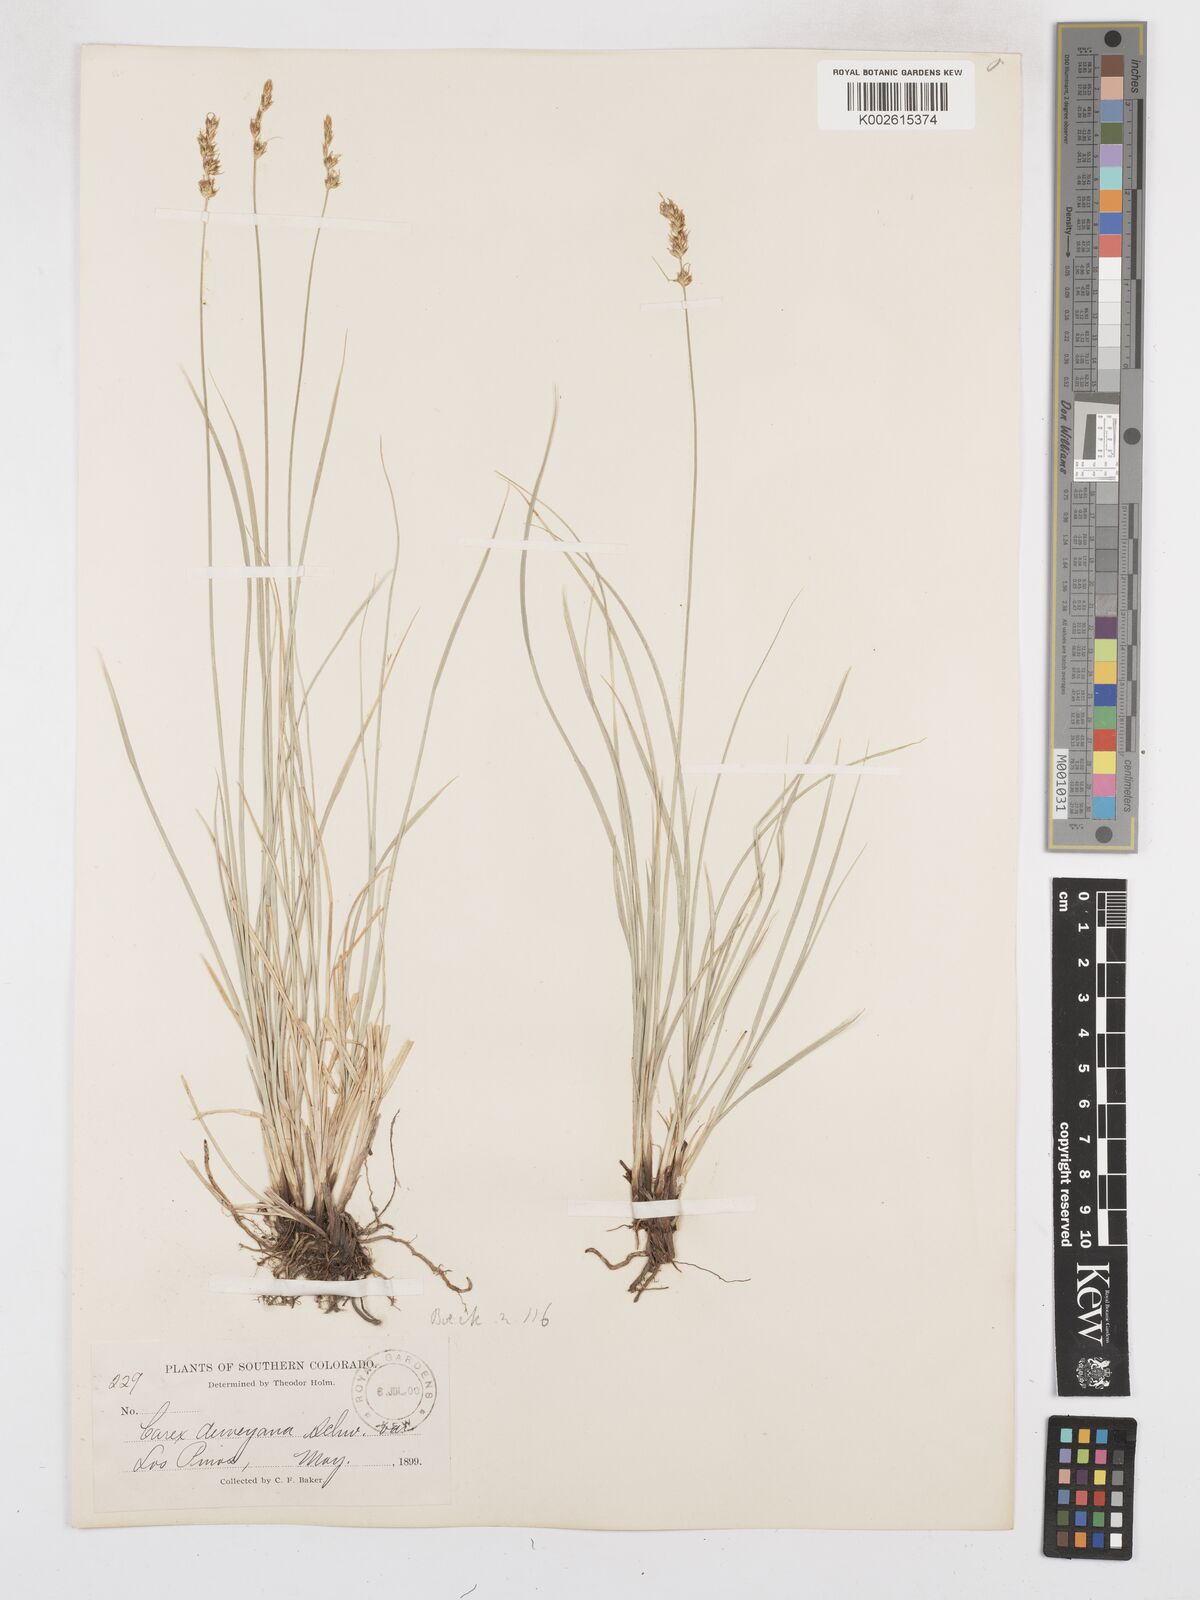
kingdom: Plantae
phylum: Tracheophyta
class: Liliopsida
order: Poales
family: Cyperaceae
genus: Carex
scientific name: Carex deweyana
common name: Dewey's sedge
